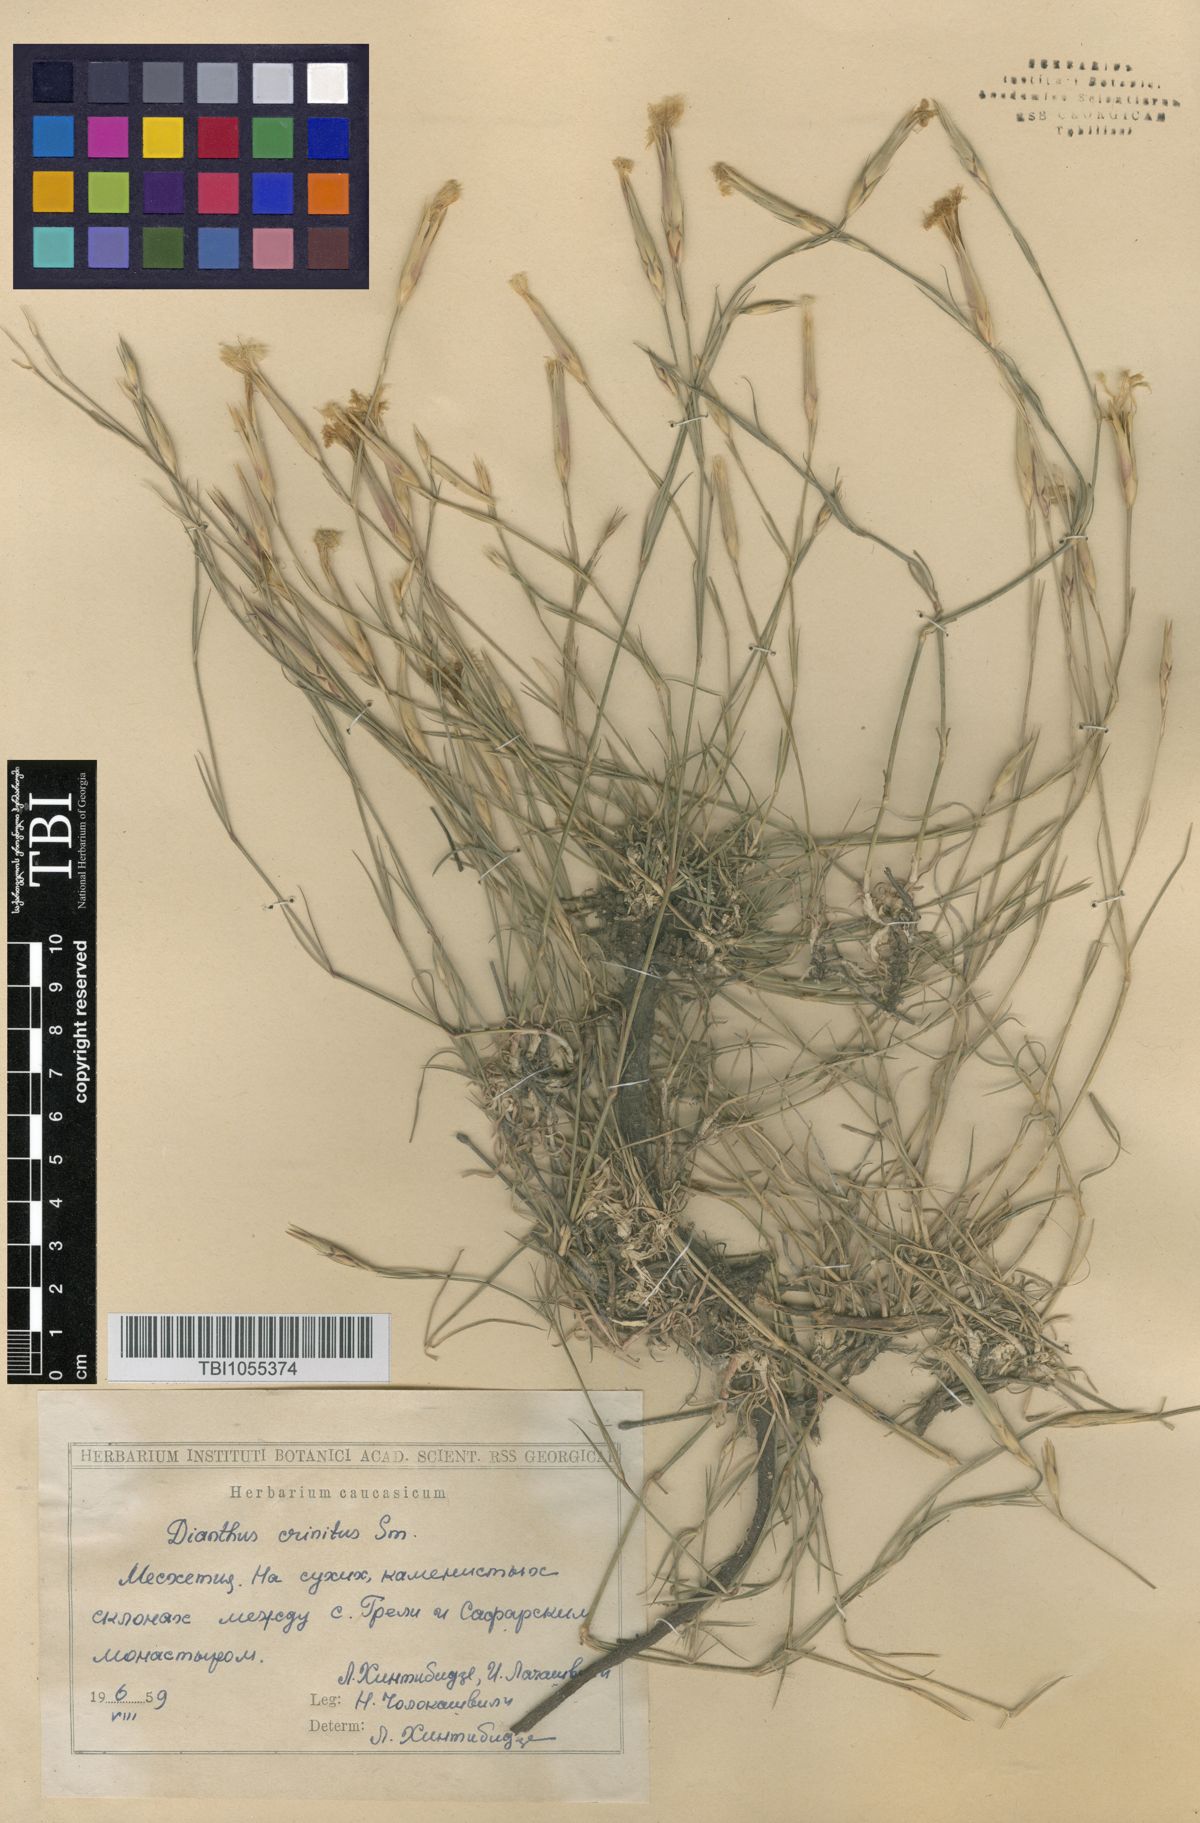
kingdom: Plantae
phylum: Tracheophyta
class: Magnoliopsida
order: Caryophyllales
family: Caryophyllaceae
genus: Dianthus
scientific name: Dianthus crinitus
